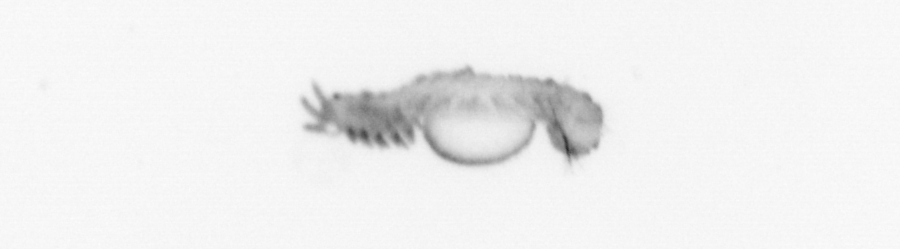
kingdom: Animalia
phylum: Annelida
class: Polychaeta
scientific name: Polychaeta
